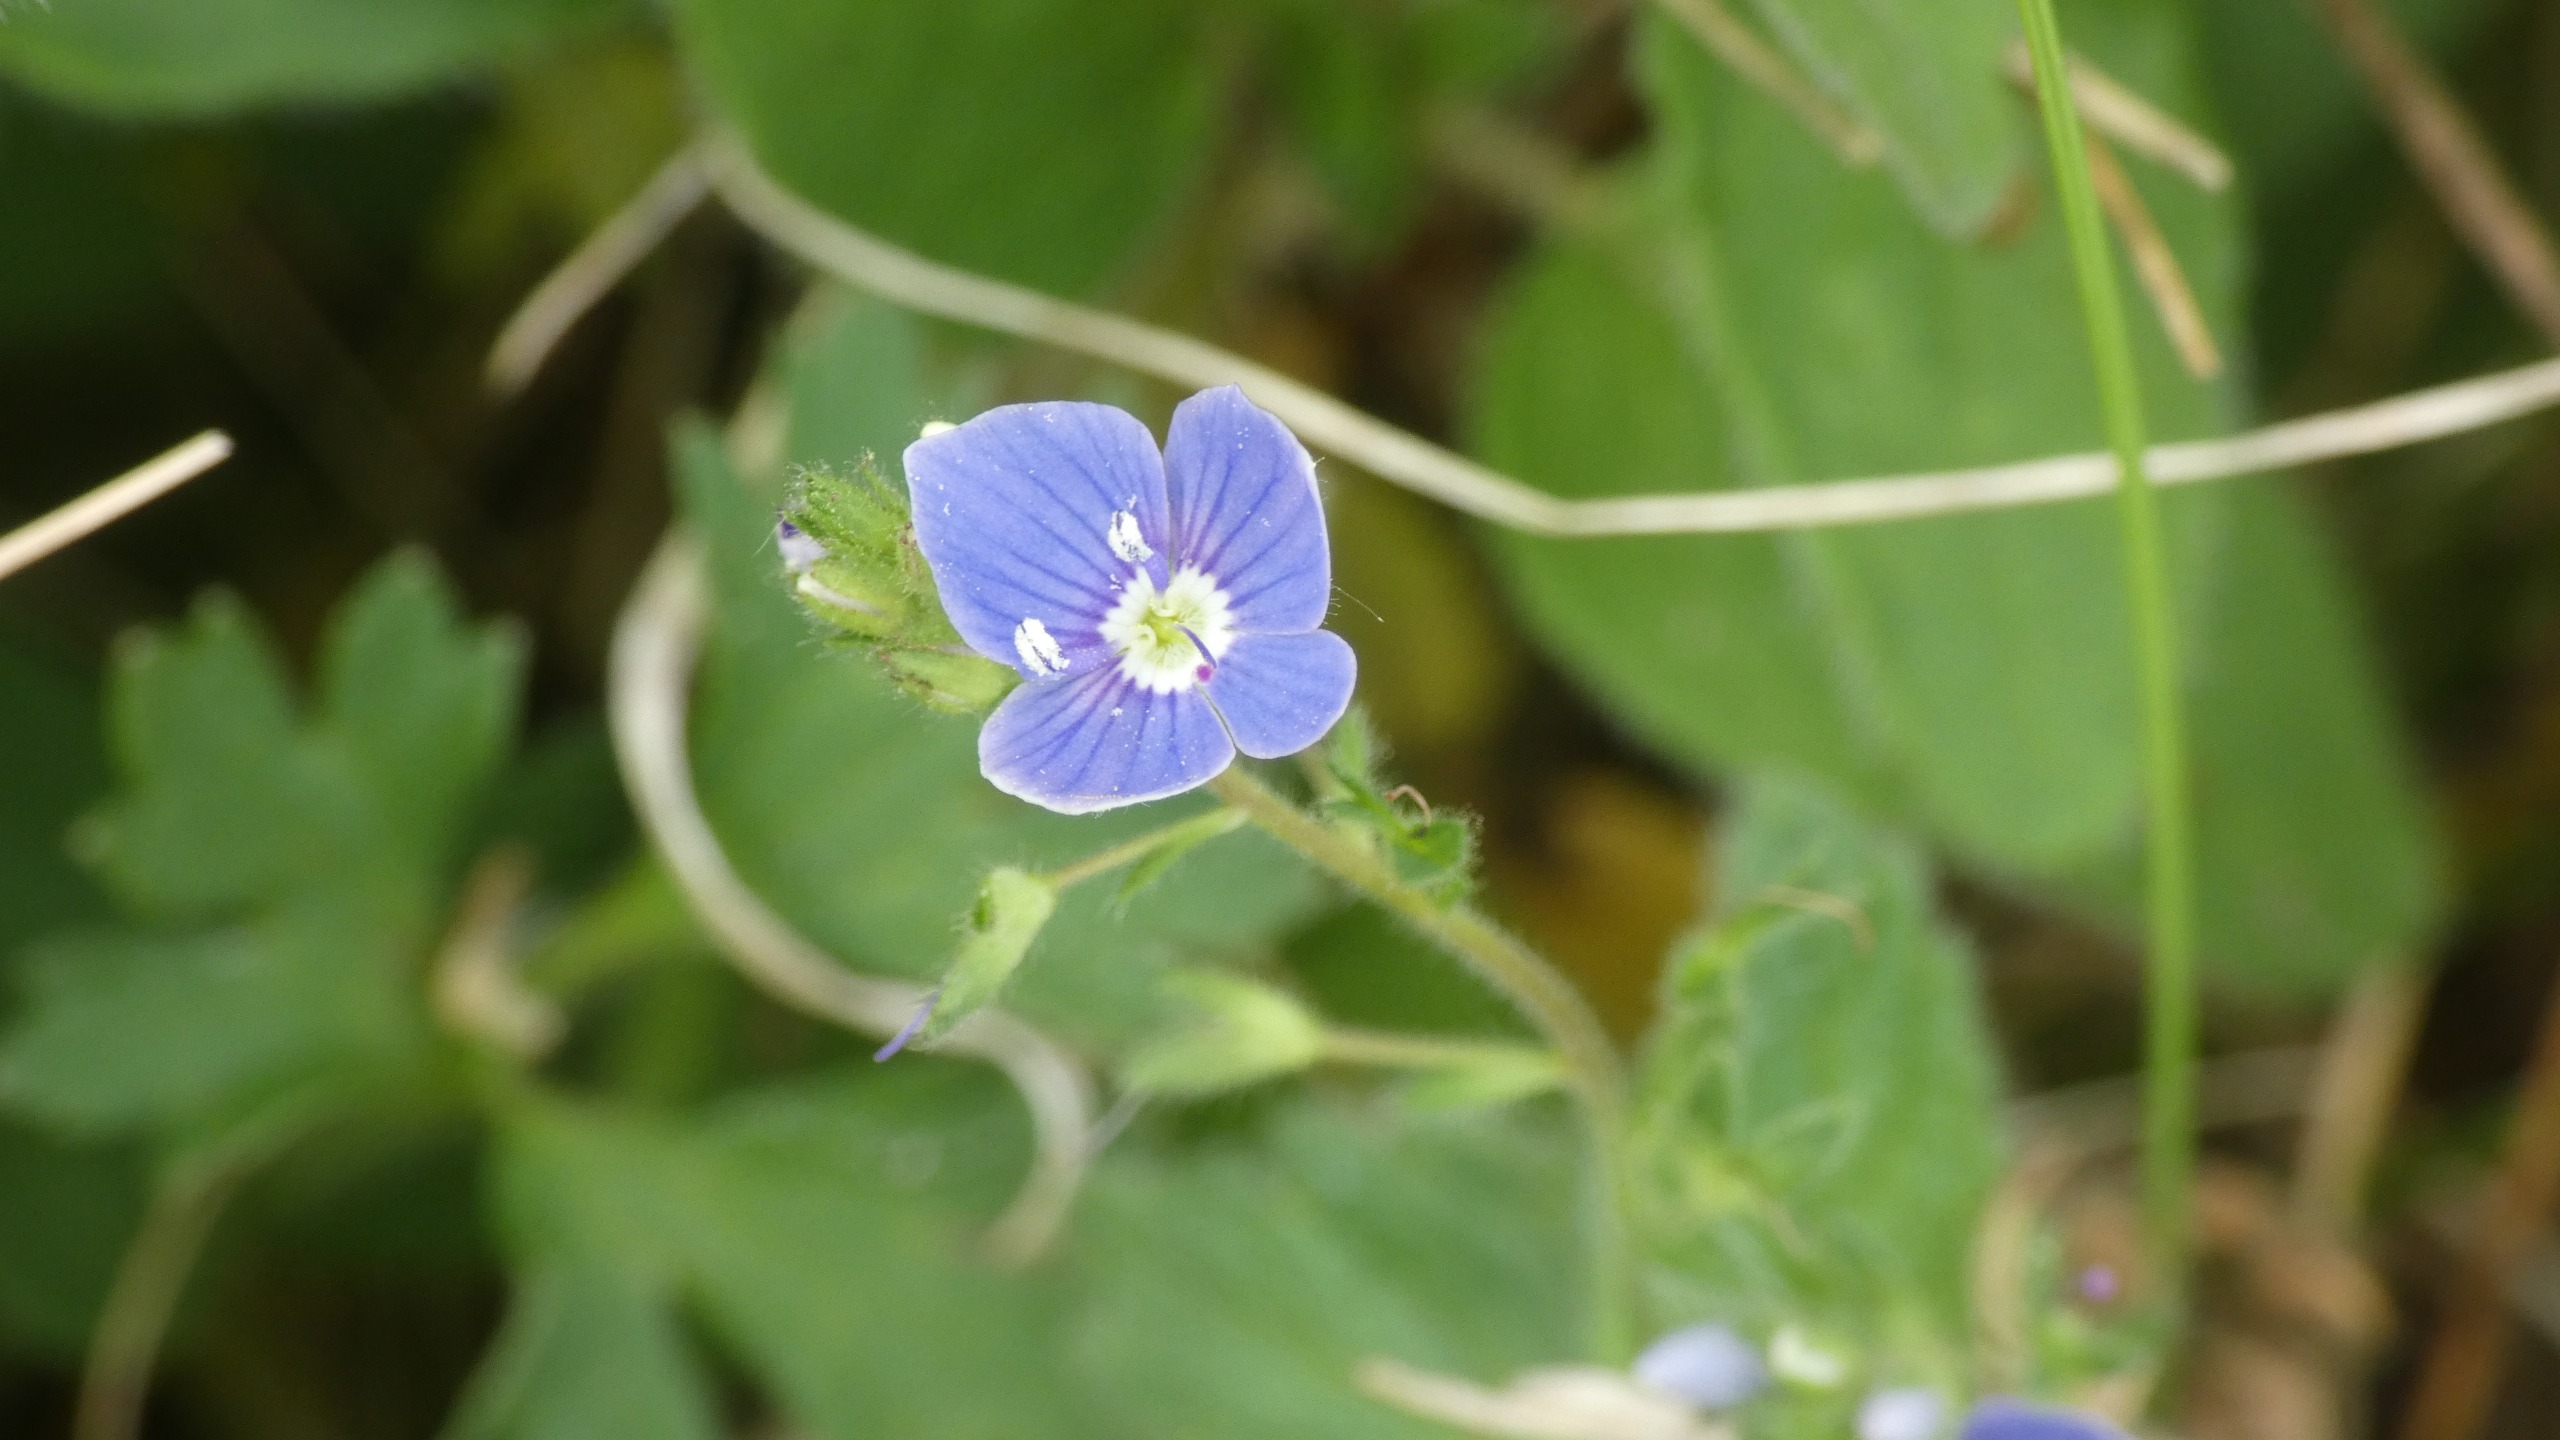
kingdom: Plantae
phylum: Tracheophyta
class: Magnoliopsida
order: Lamiales
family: Plantaginaceae
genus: Veronica
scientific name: Veronica chamaedrys
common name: Tveskægget ærenpris
